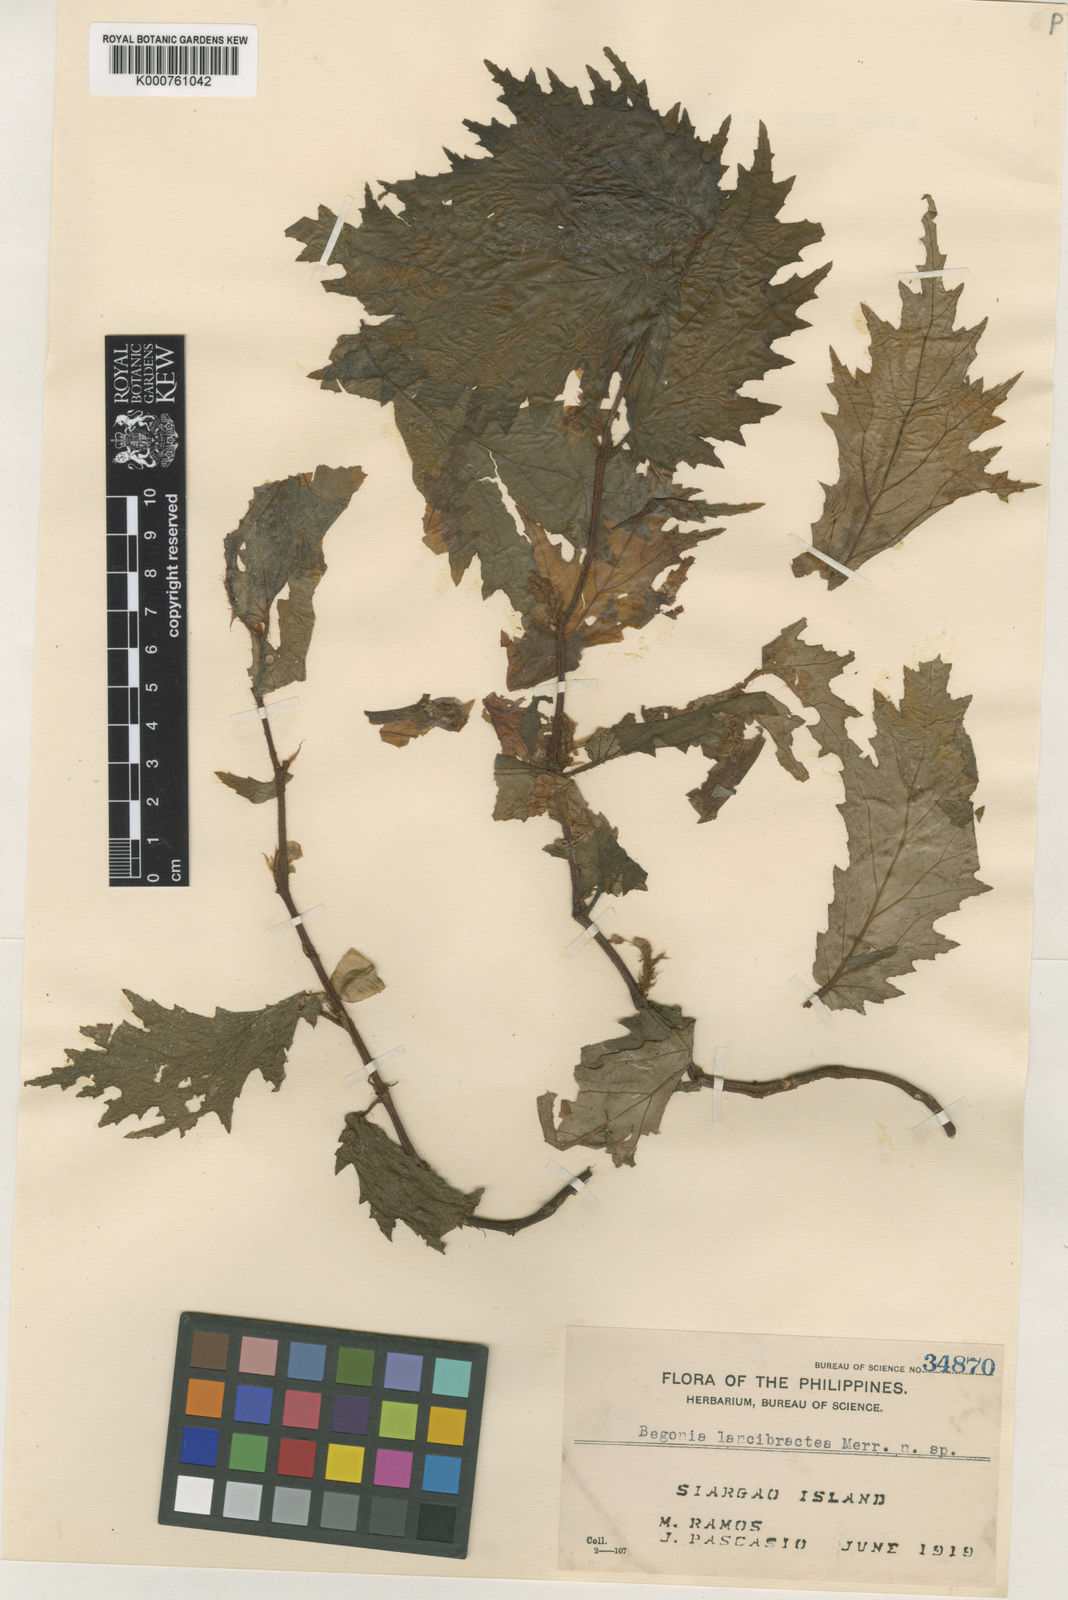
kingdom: Plantae
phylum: Tracheophyta
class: Magnoliopsida
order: Cucurbitales
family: Begoniaceae
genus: Begonia
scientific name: Begonia
